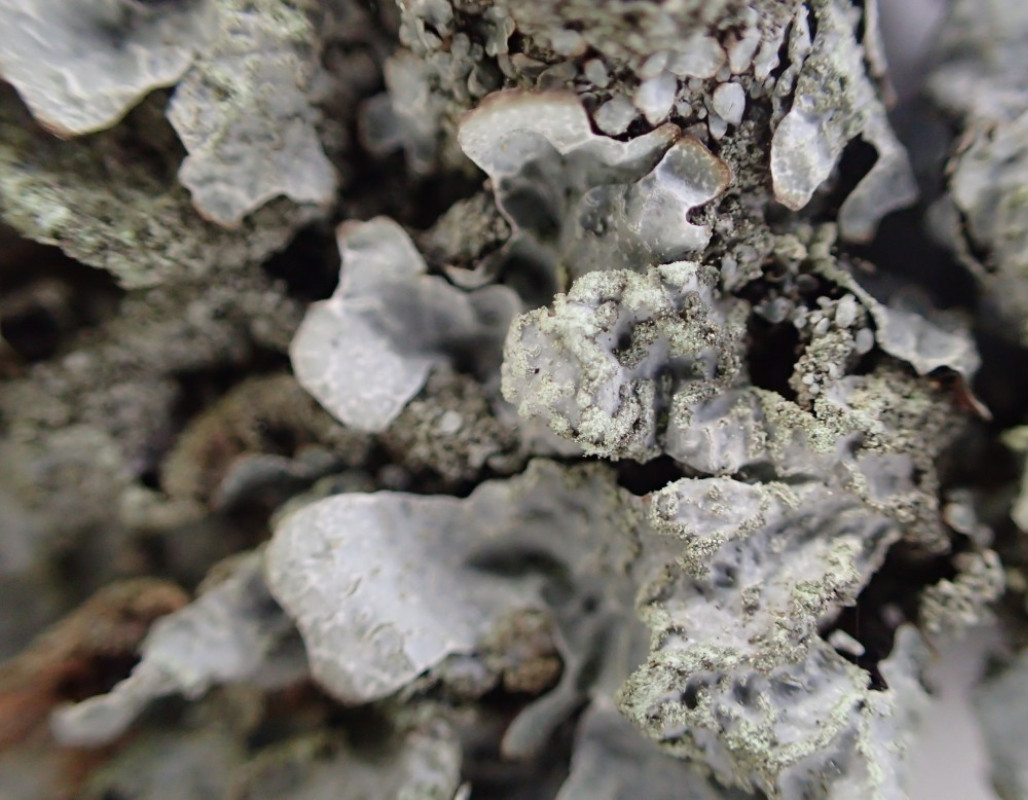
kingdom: Fungi
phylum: Ascomycota
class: Lecanoromycetes
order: Lecanorales
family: Parmeliaceae
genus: Parmelia
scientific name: Parmelia sulcata
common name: rynket skållav
